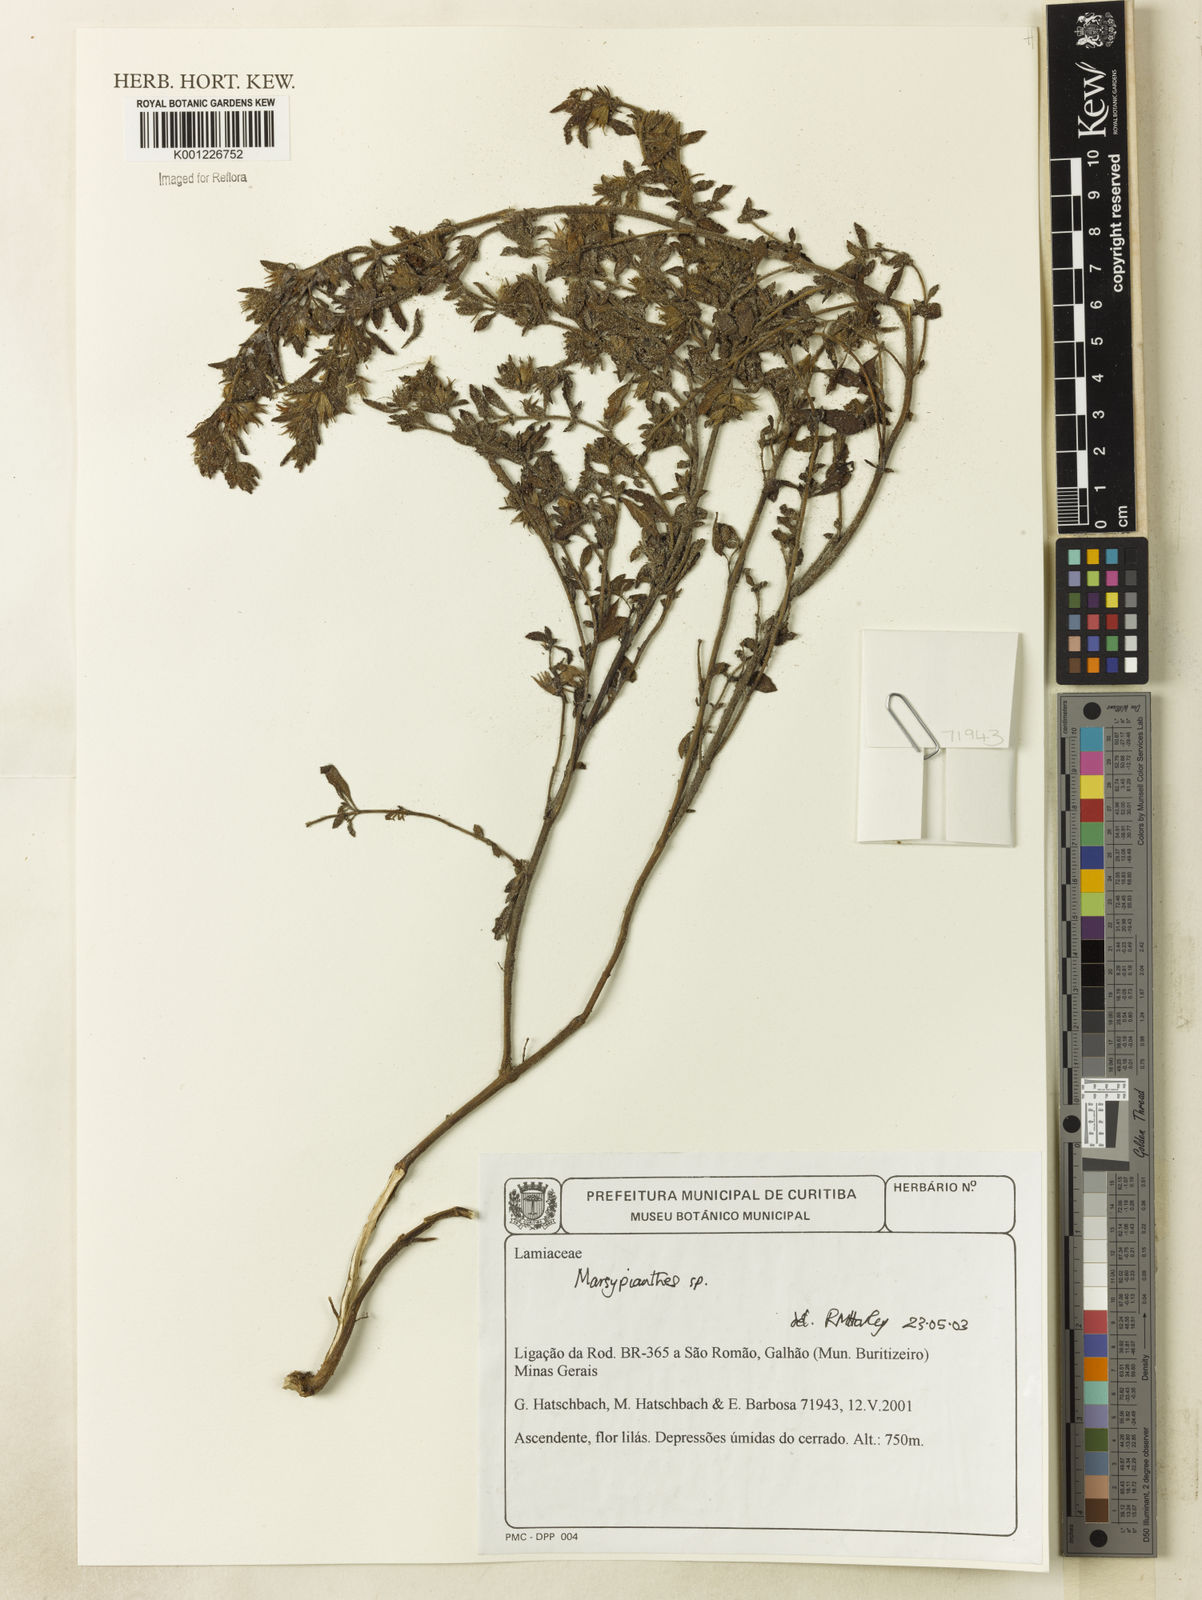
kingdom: Plantae
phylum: Tracheophyta
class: Magnoliopsida
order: Lamiales
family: Lamiaceae
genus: Marsypianthes
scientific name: Marsypianthes
